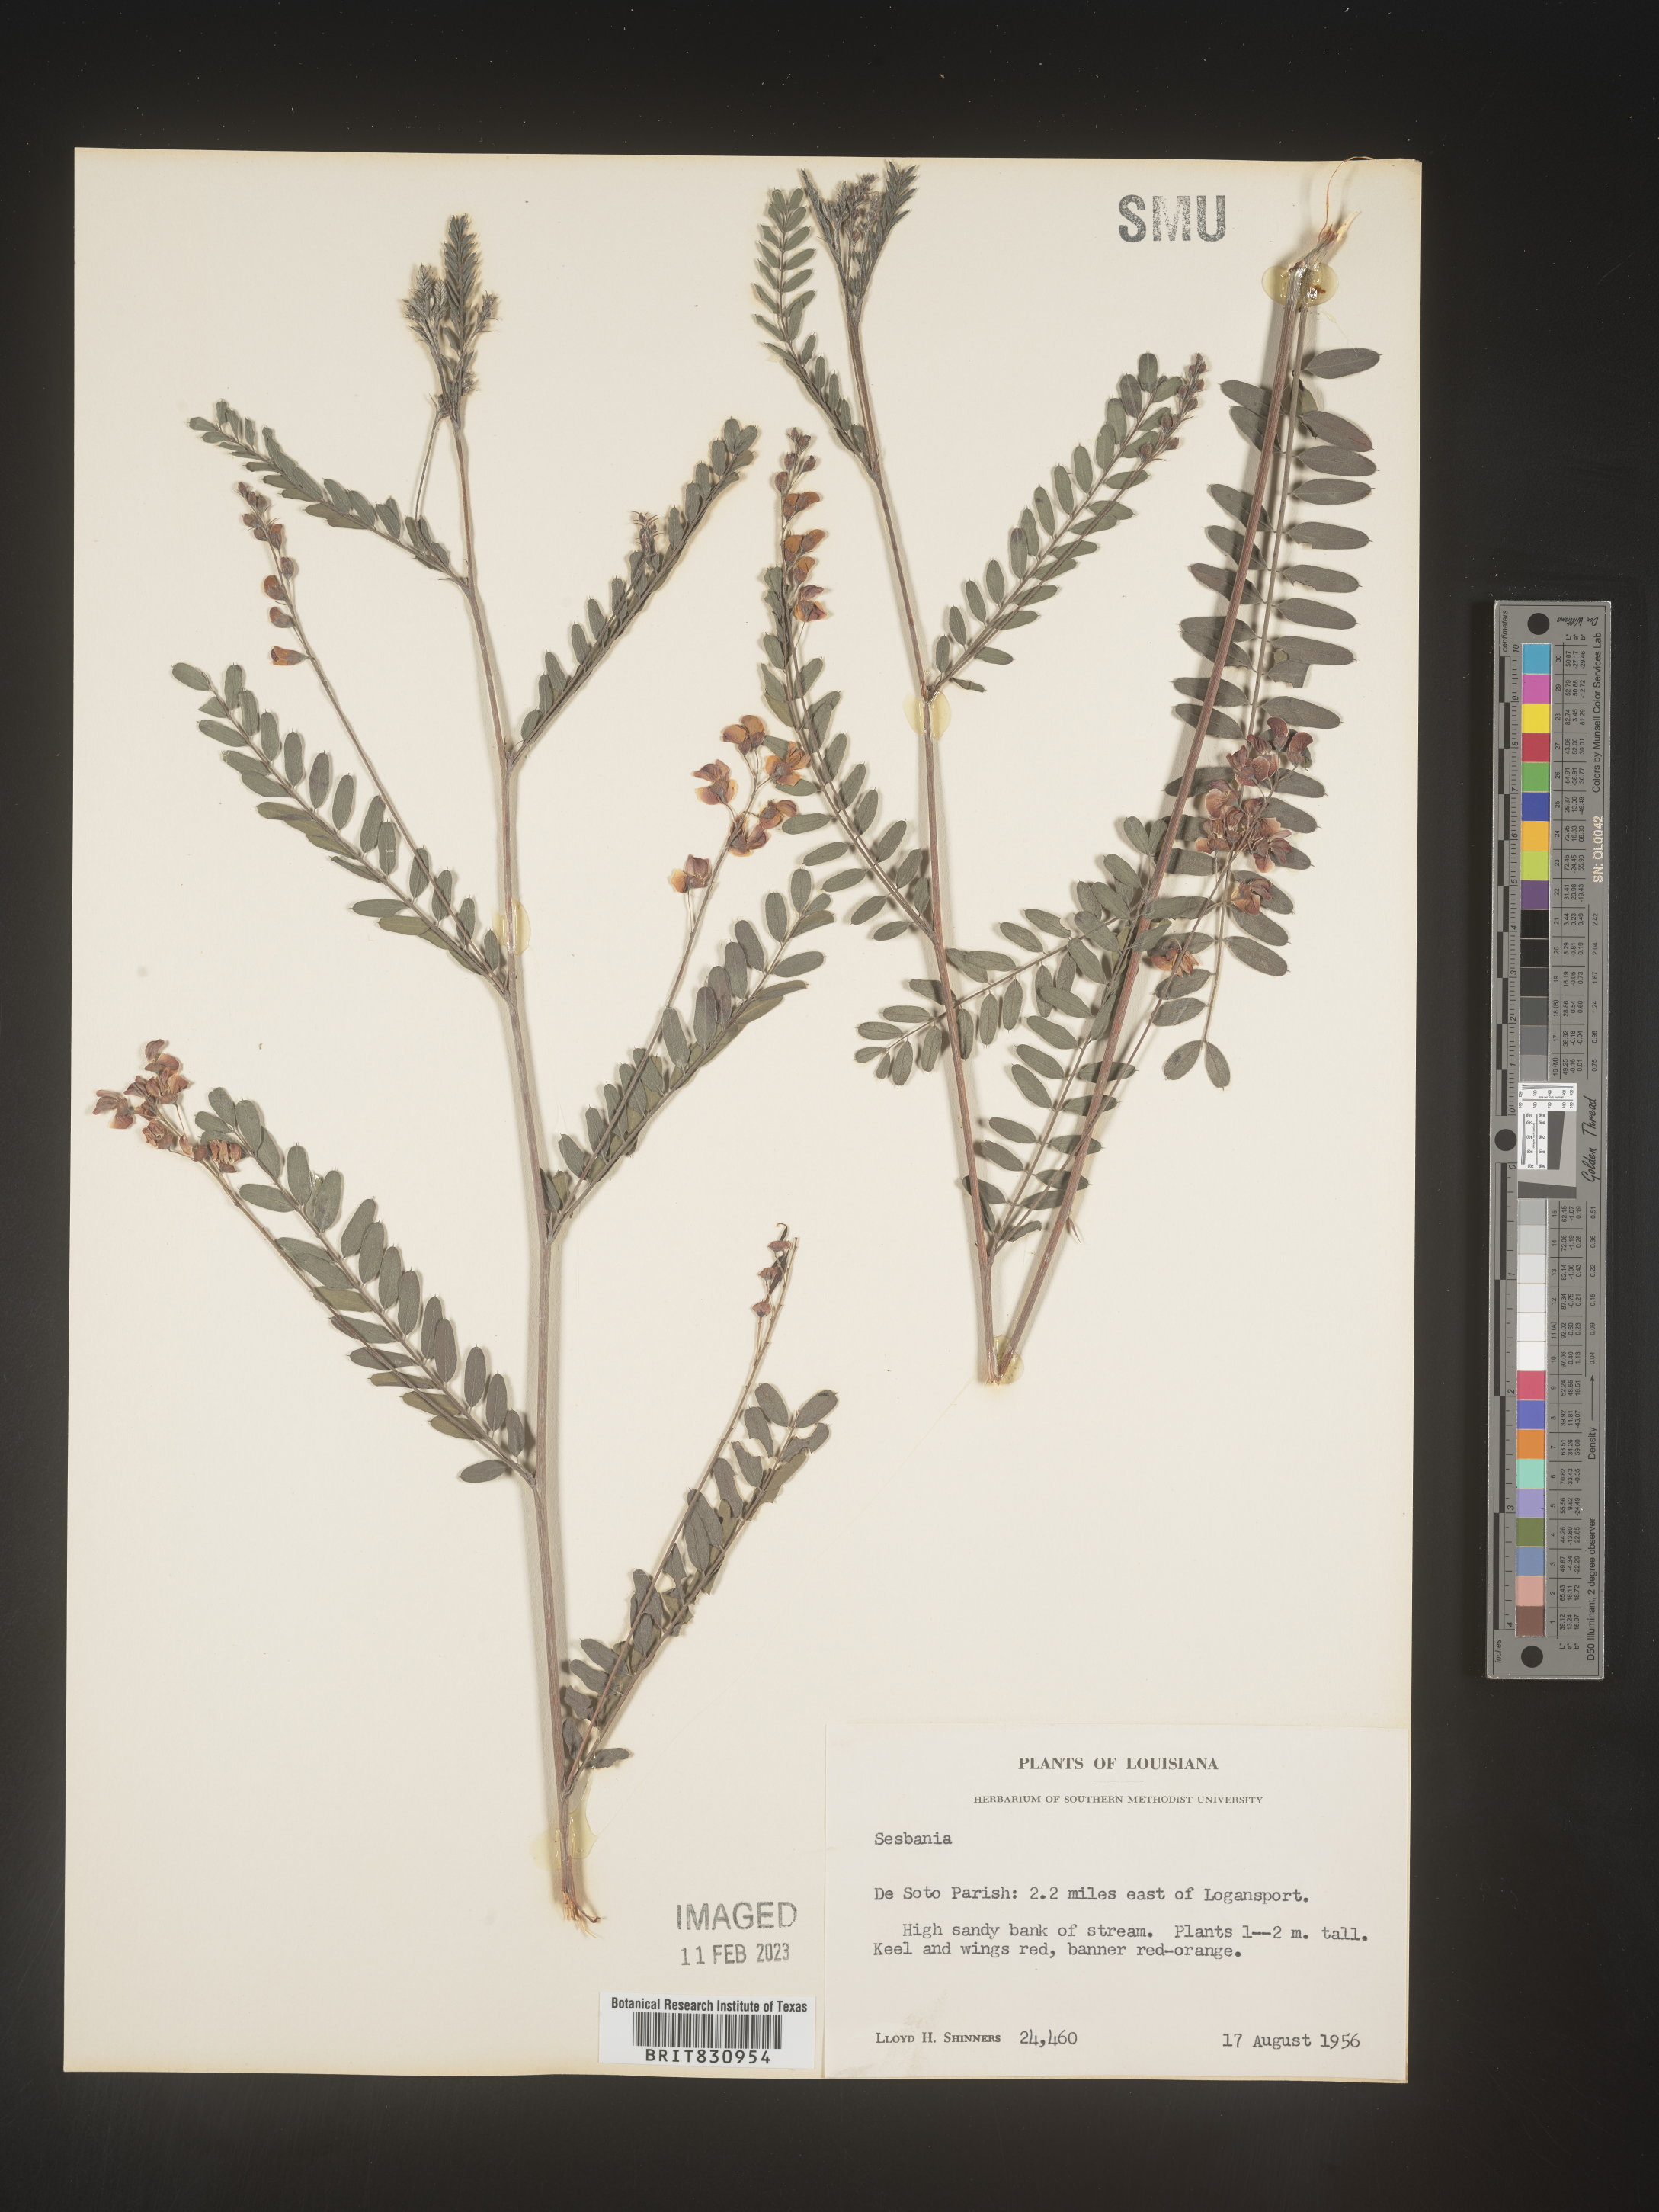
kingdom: Plantae
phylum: Tracheophyta
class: Magnoliopsida
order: Fabales
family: Fabaceae
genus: Sesbania
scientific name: Sesbania
